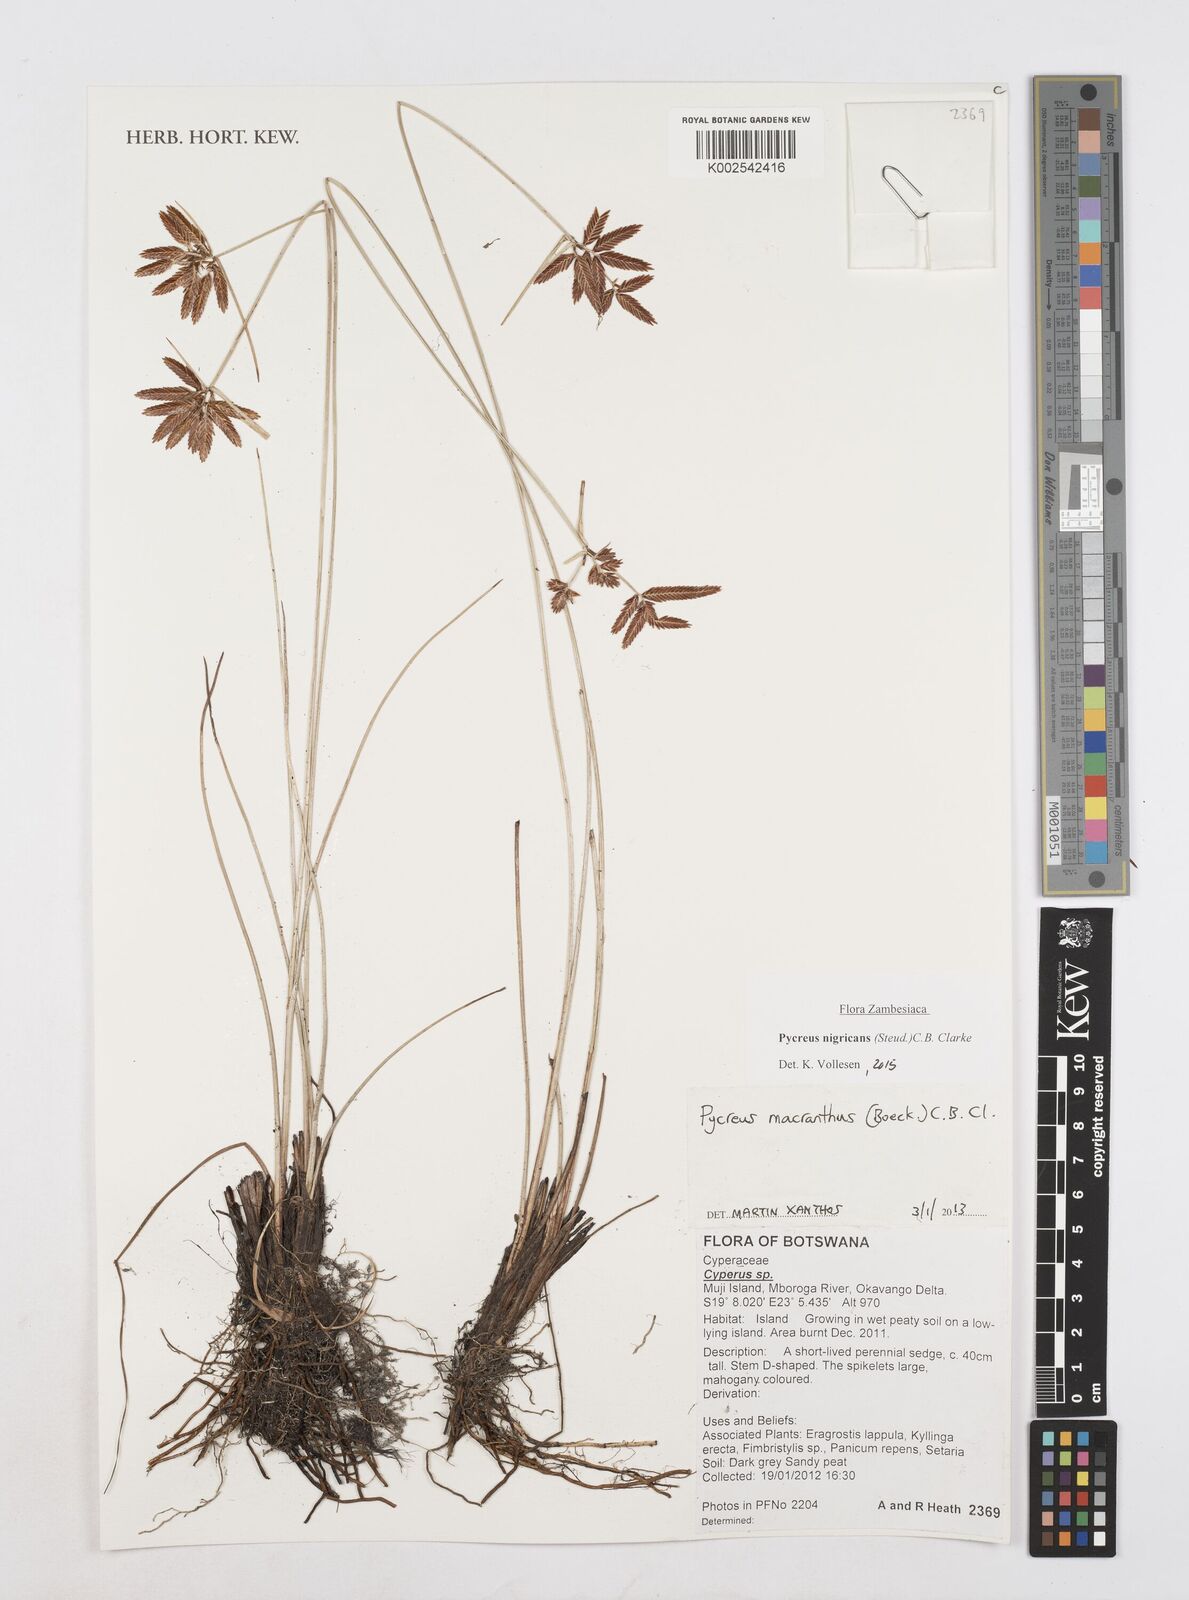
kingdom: Plantae
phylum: Tracheophyta
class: Liliopsida
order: Poales
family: Cyperaceae
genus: Cyperus
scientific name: Cyperus nigricans
